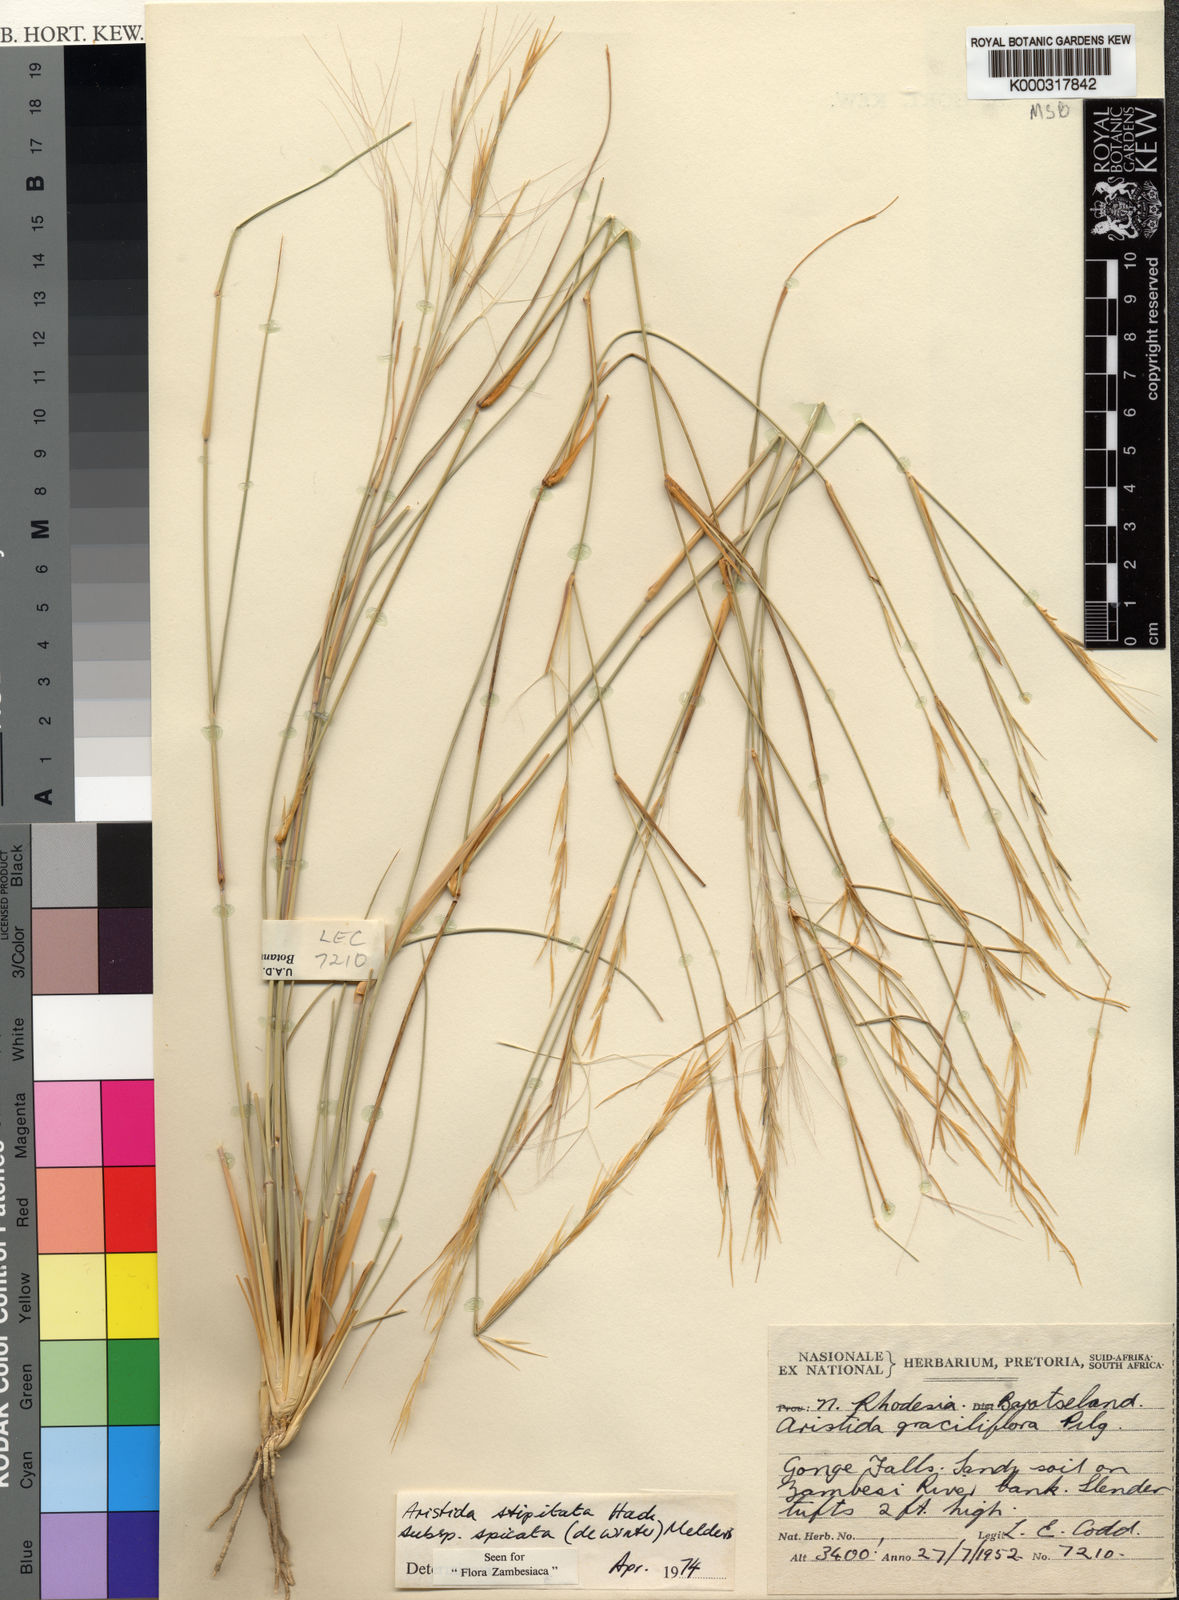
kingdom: Plantae
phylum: Tracheophyta
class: Liliopsida
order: Poales
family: Poaceae
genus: Aristida
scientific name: Aristida stipitata
